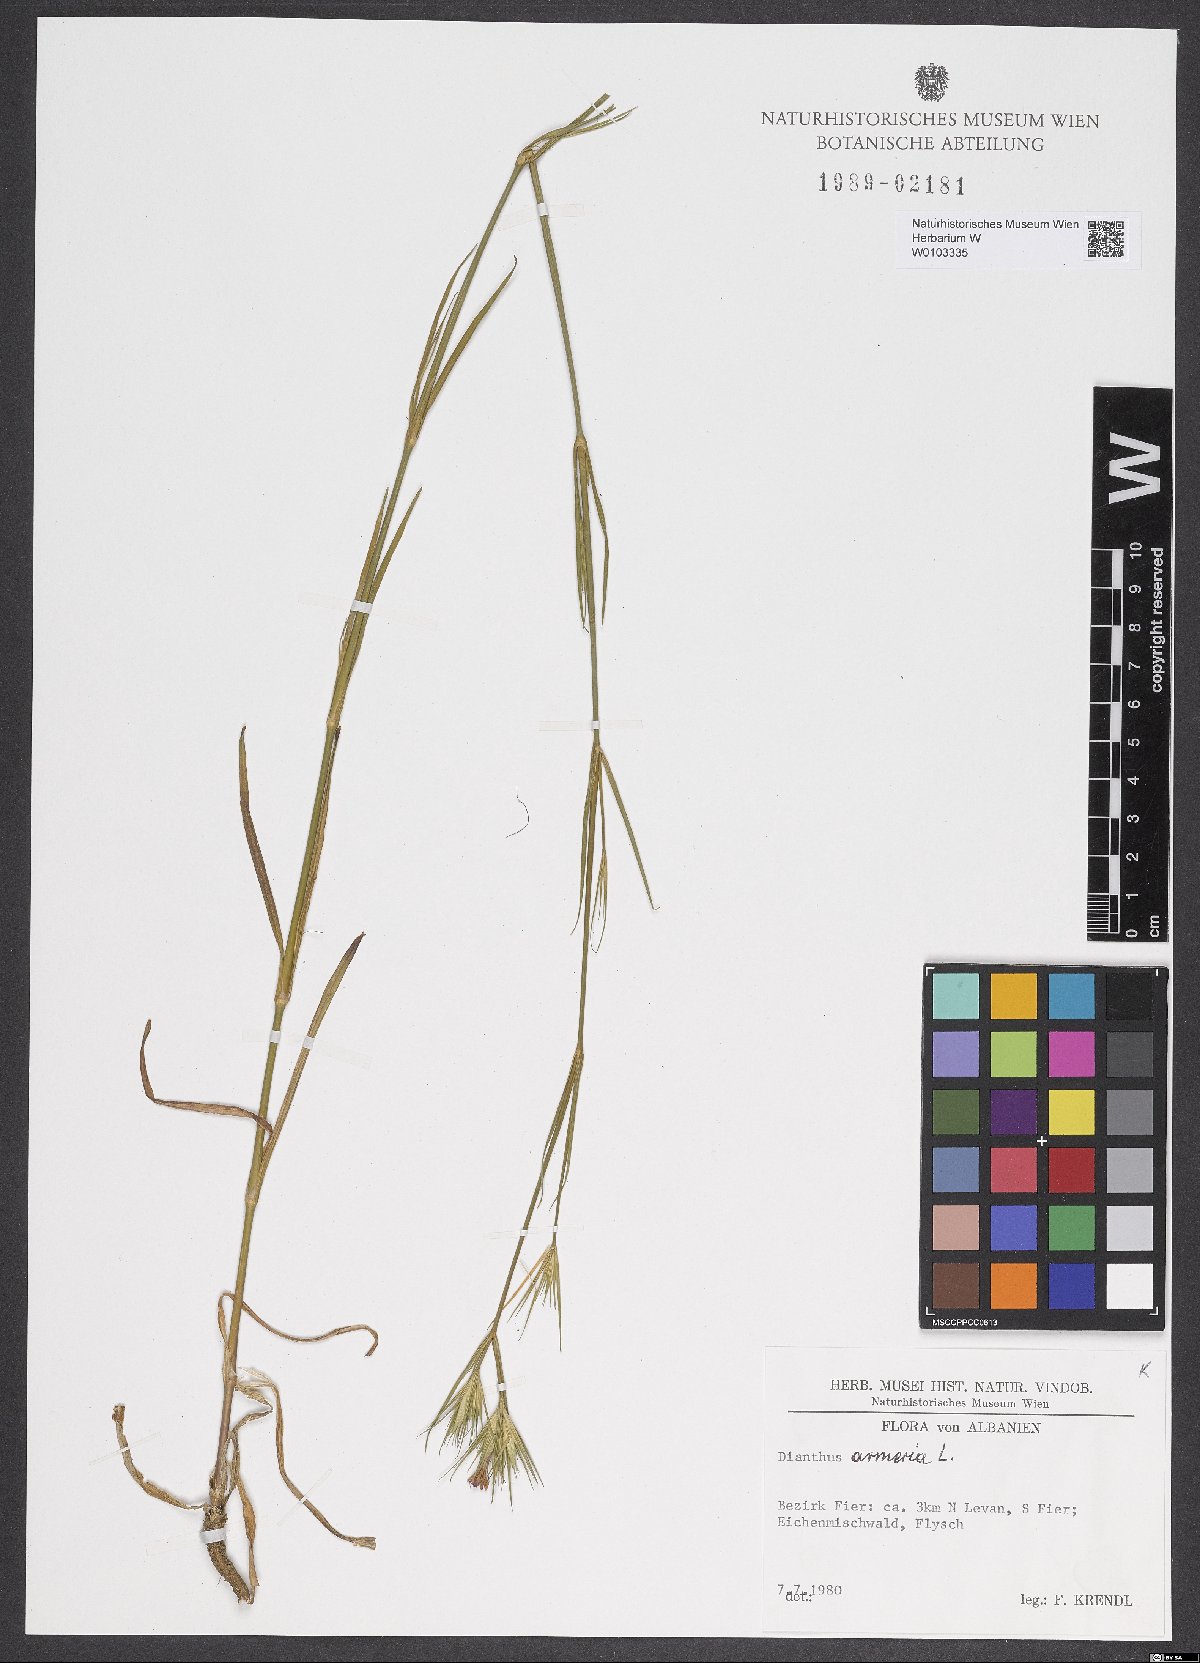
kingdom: Plantae
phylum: Tracheophyta
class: Magnoliopsida
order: Caryophyllales
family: Caryophyllaceae
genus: Dianthus
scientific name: Dianthus armeria
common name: Deptford pink
